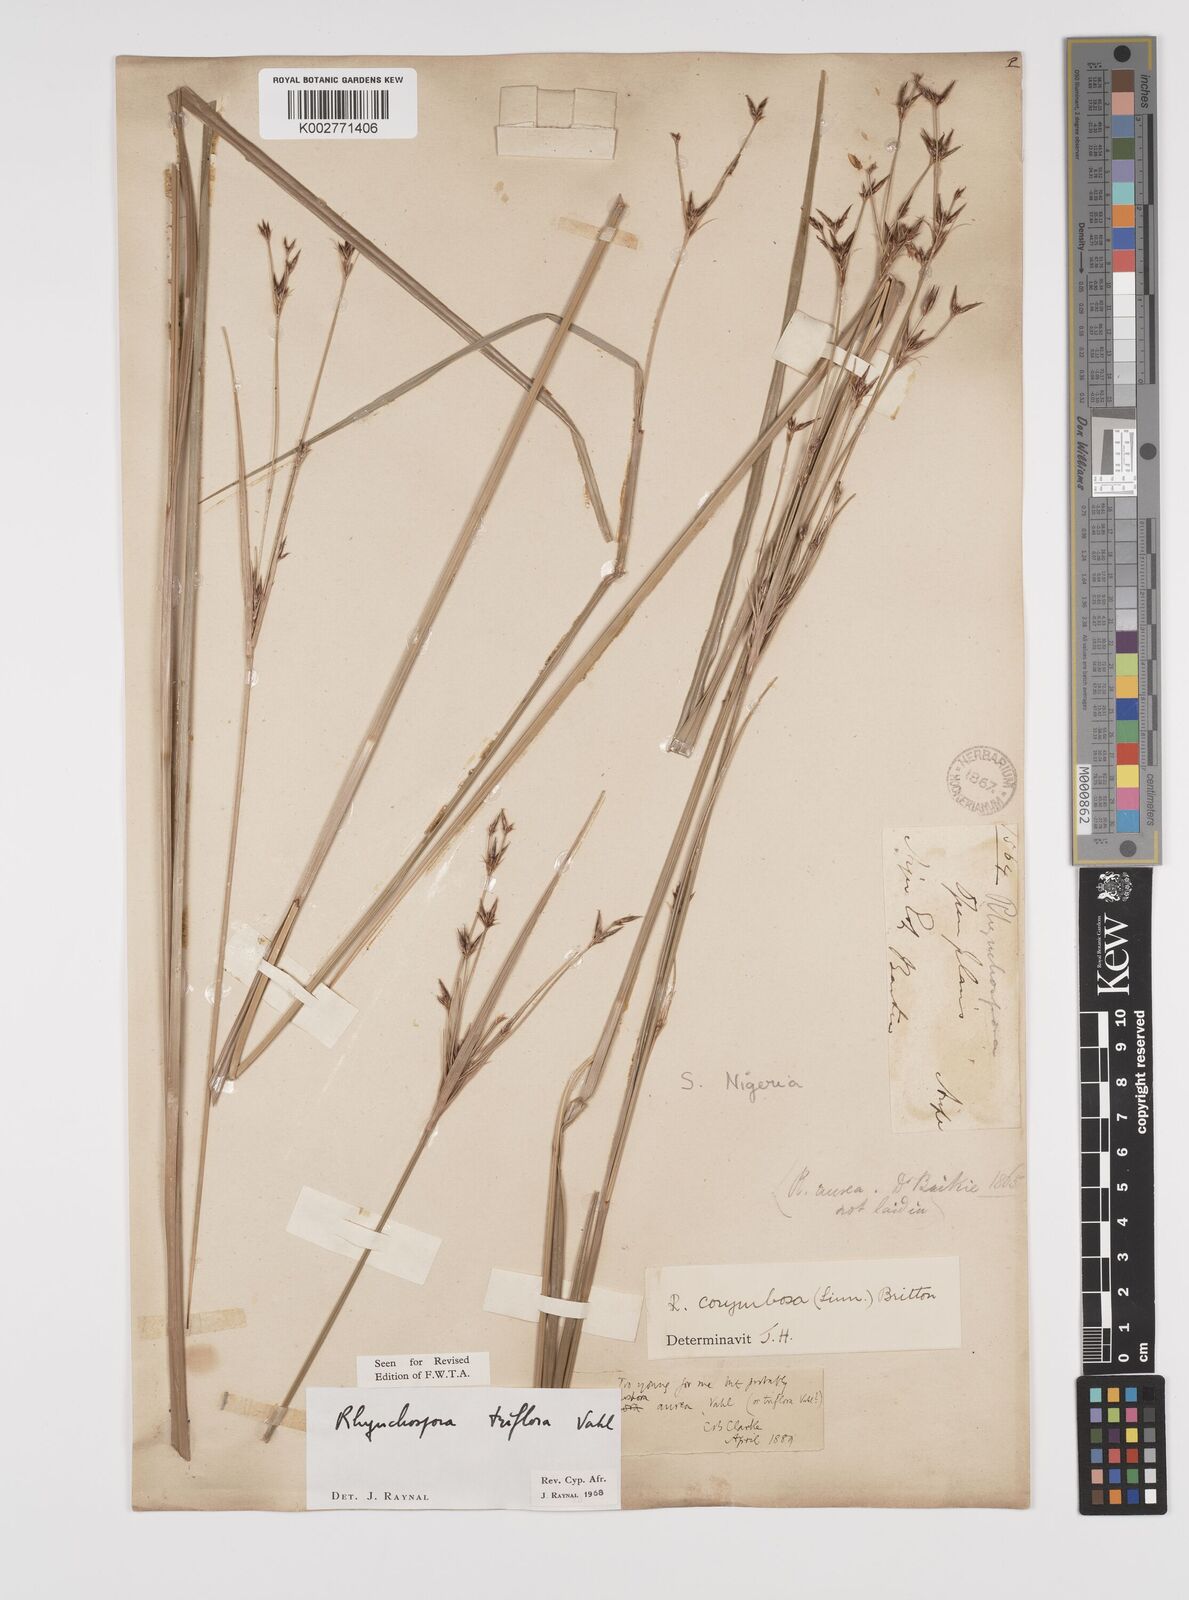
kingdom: Plantae
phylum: Tracheophyta
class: Liliopsida
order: Poales
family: Cyperaceae
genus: Rhynchospora
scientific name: Rhynchospora triflora
